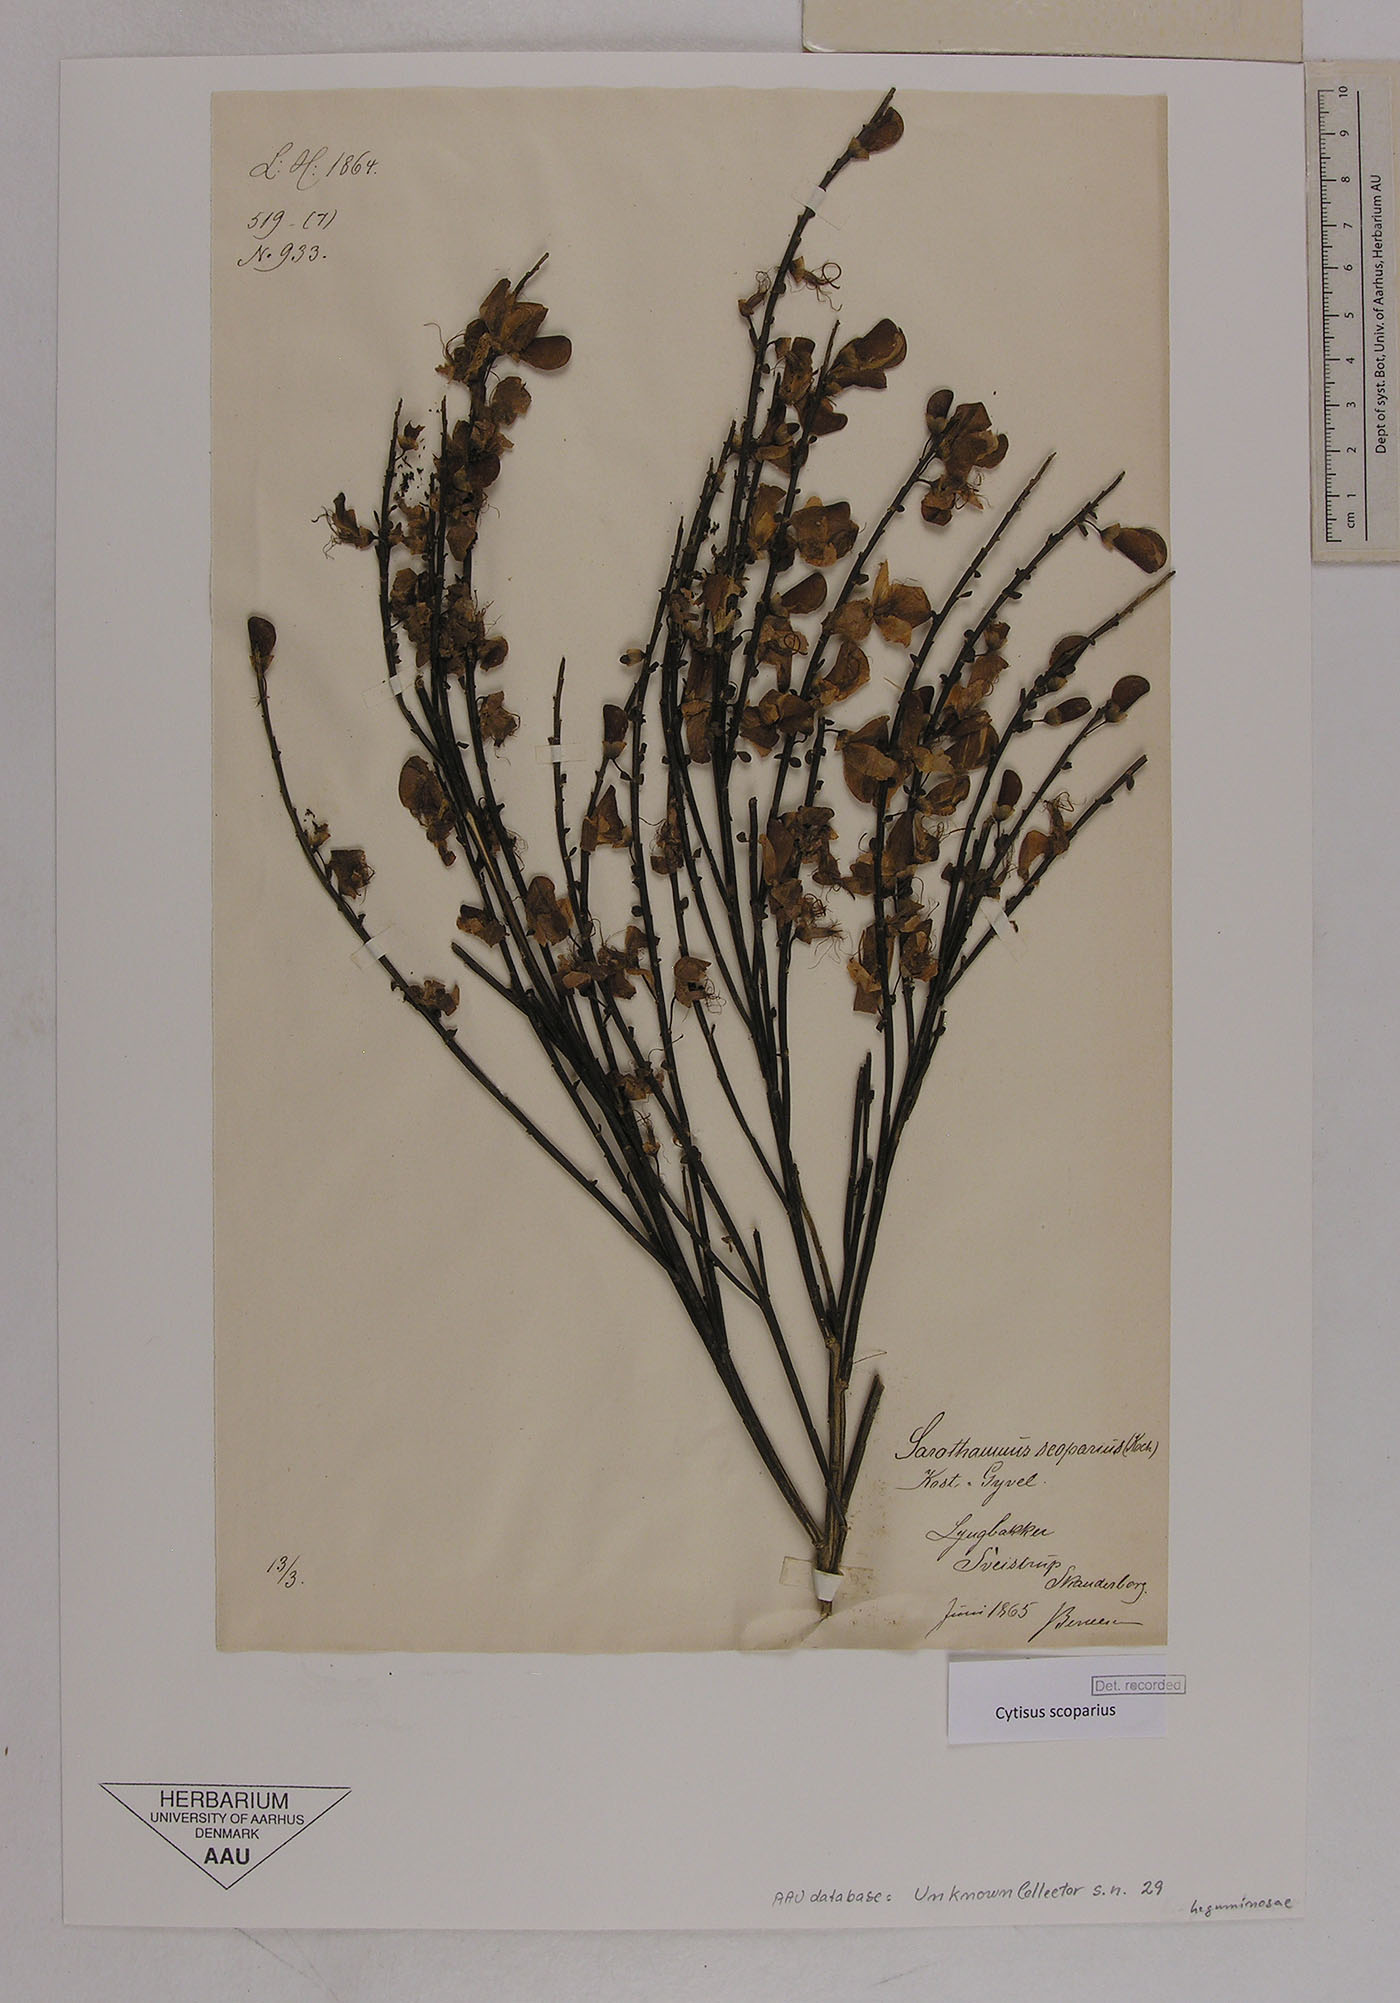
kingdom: Plantae
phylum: Tracheophyta
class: Magnoliopsida
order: Fabales
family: Fabaceae
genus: Cytisus
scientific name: Cytisus scoparius
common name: Scotch broom
